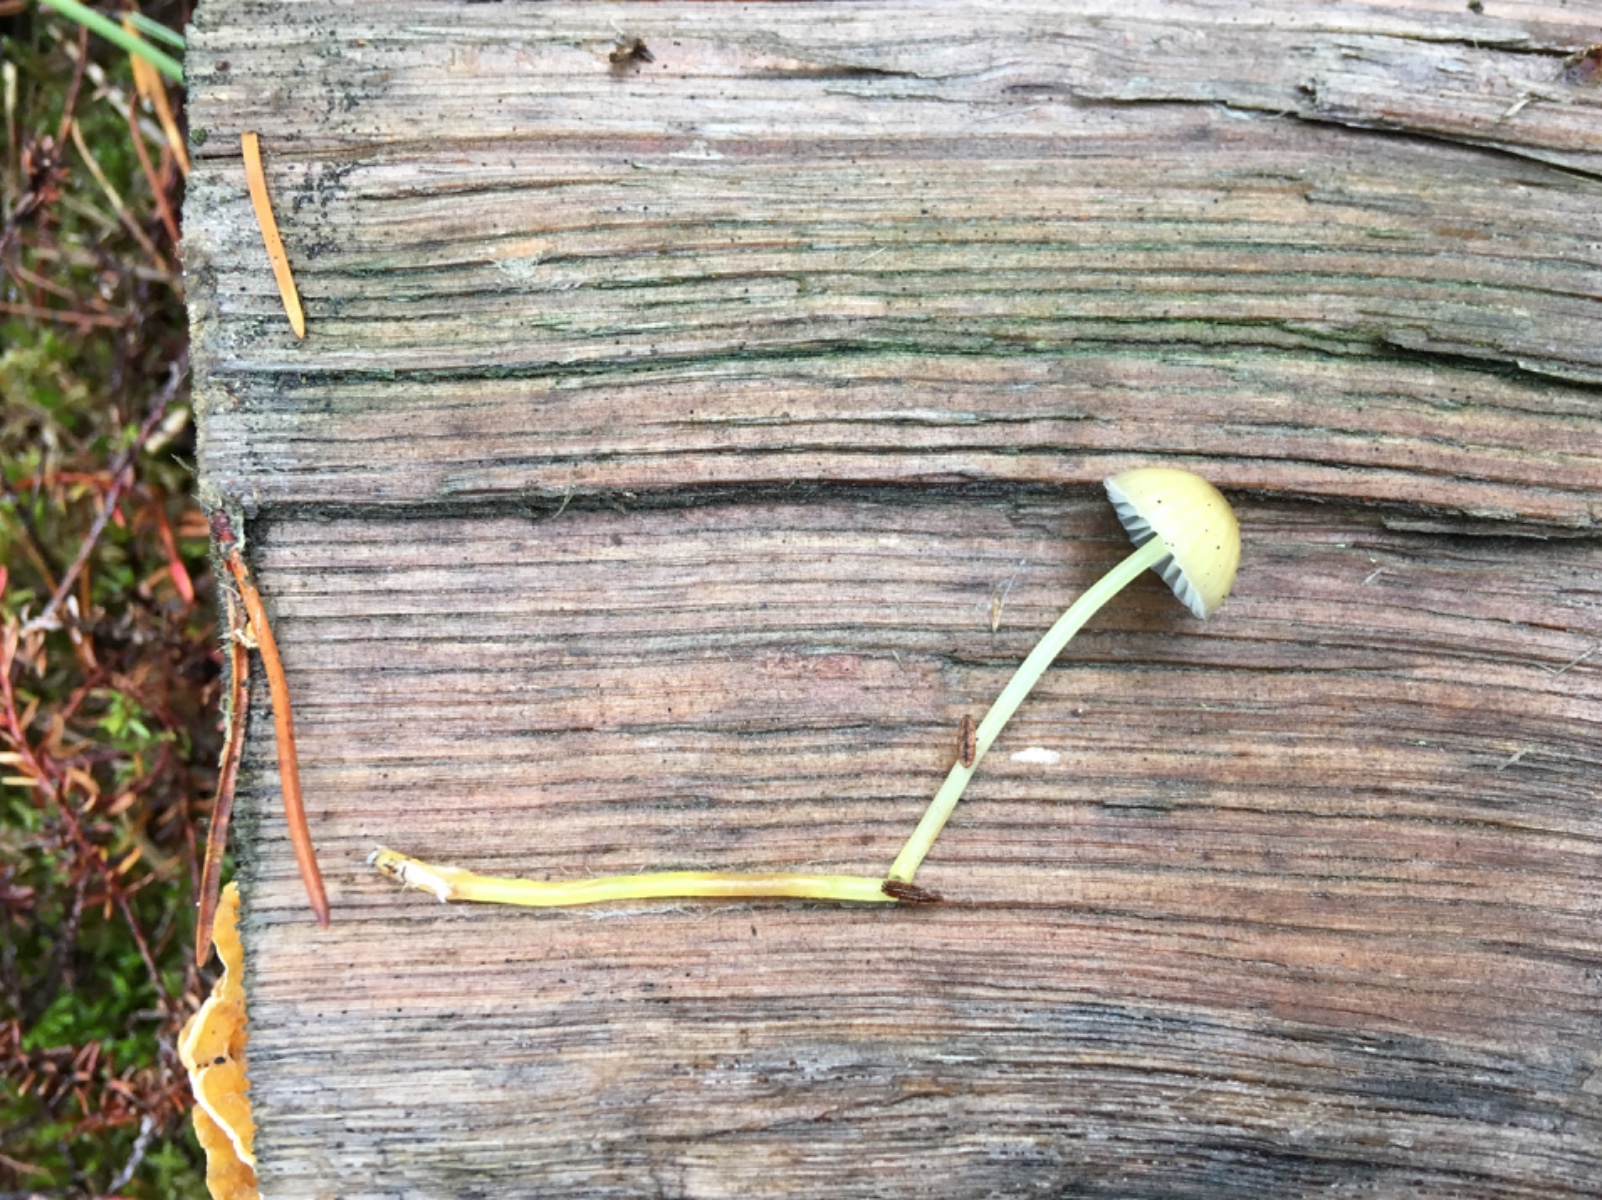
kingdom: Fungi
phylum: Basidiomycota
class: Agaricomycetes
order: Agaricales
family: Mycenaceae
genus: Mycena
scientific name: Mycena epipterygia
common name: gulstokket huesvamp
